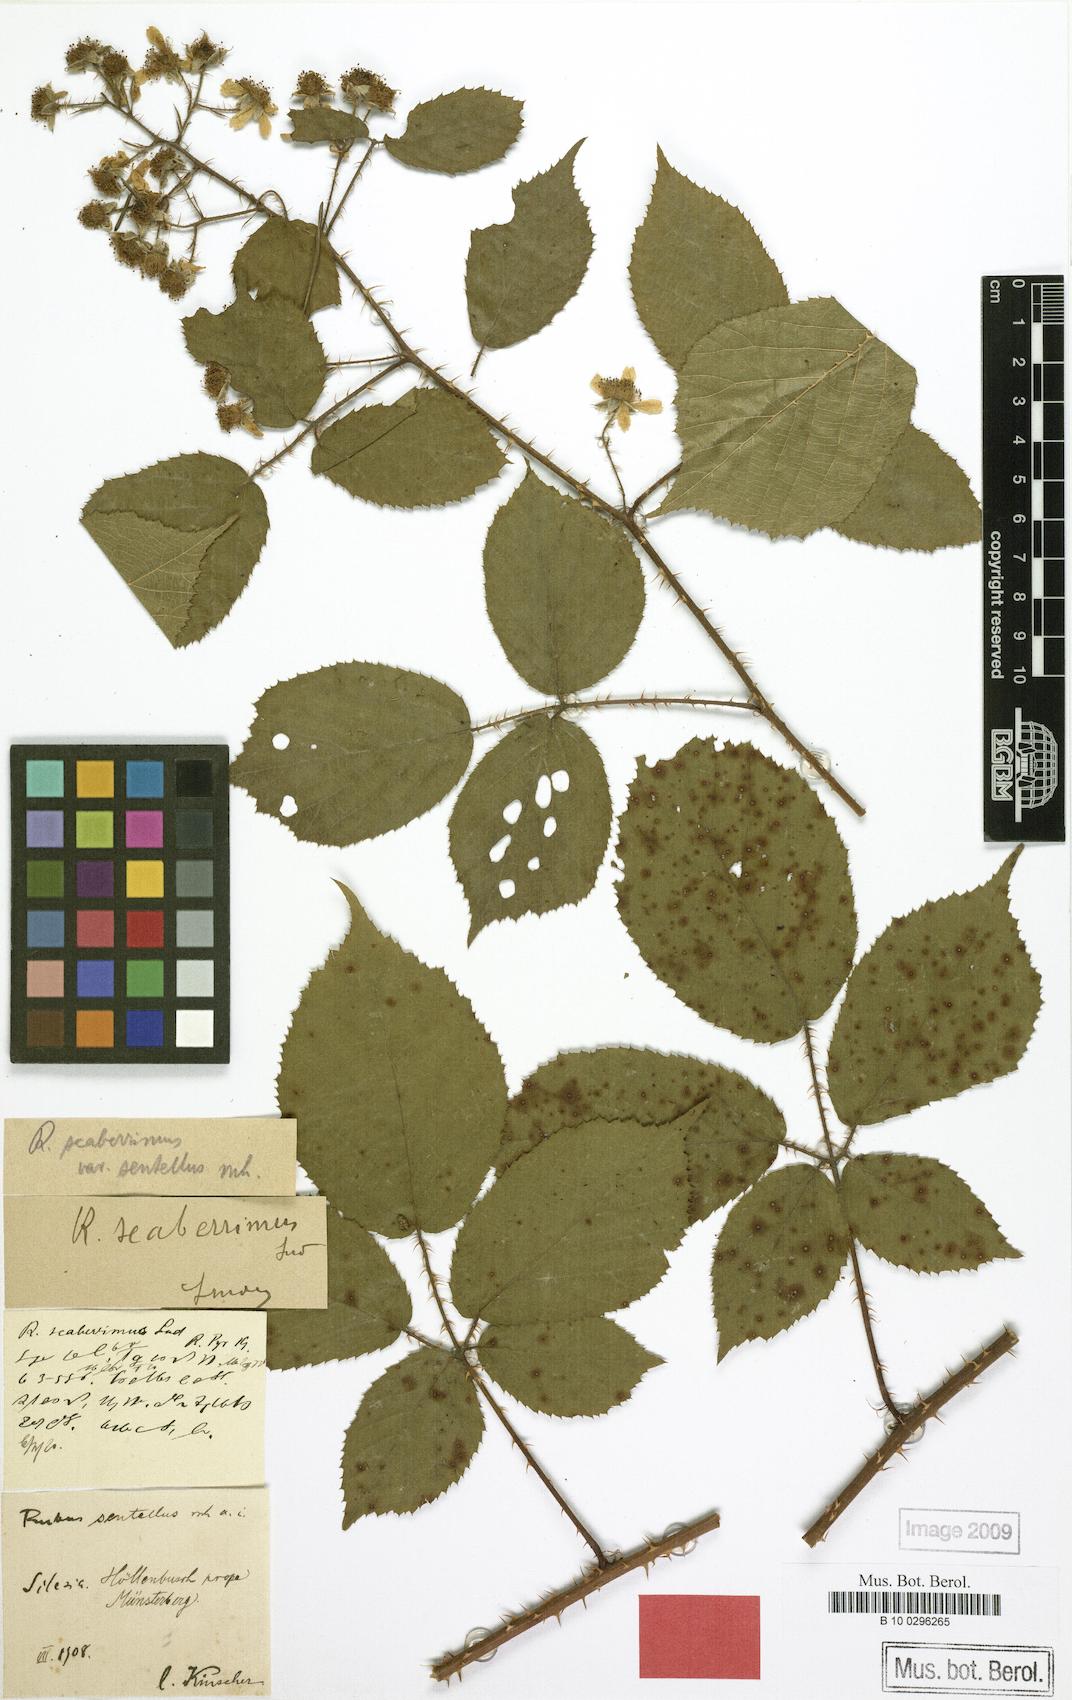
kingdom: Plantae
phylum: Tracheophyta
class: Magnoliopsida
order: Rosales
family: Rosaceae
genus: Rubus
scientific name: Rubus sentellus
